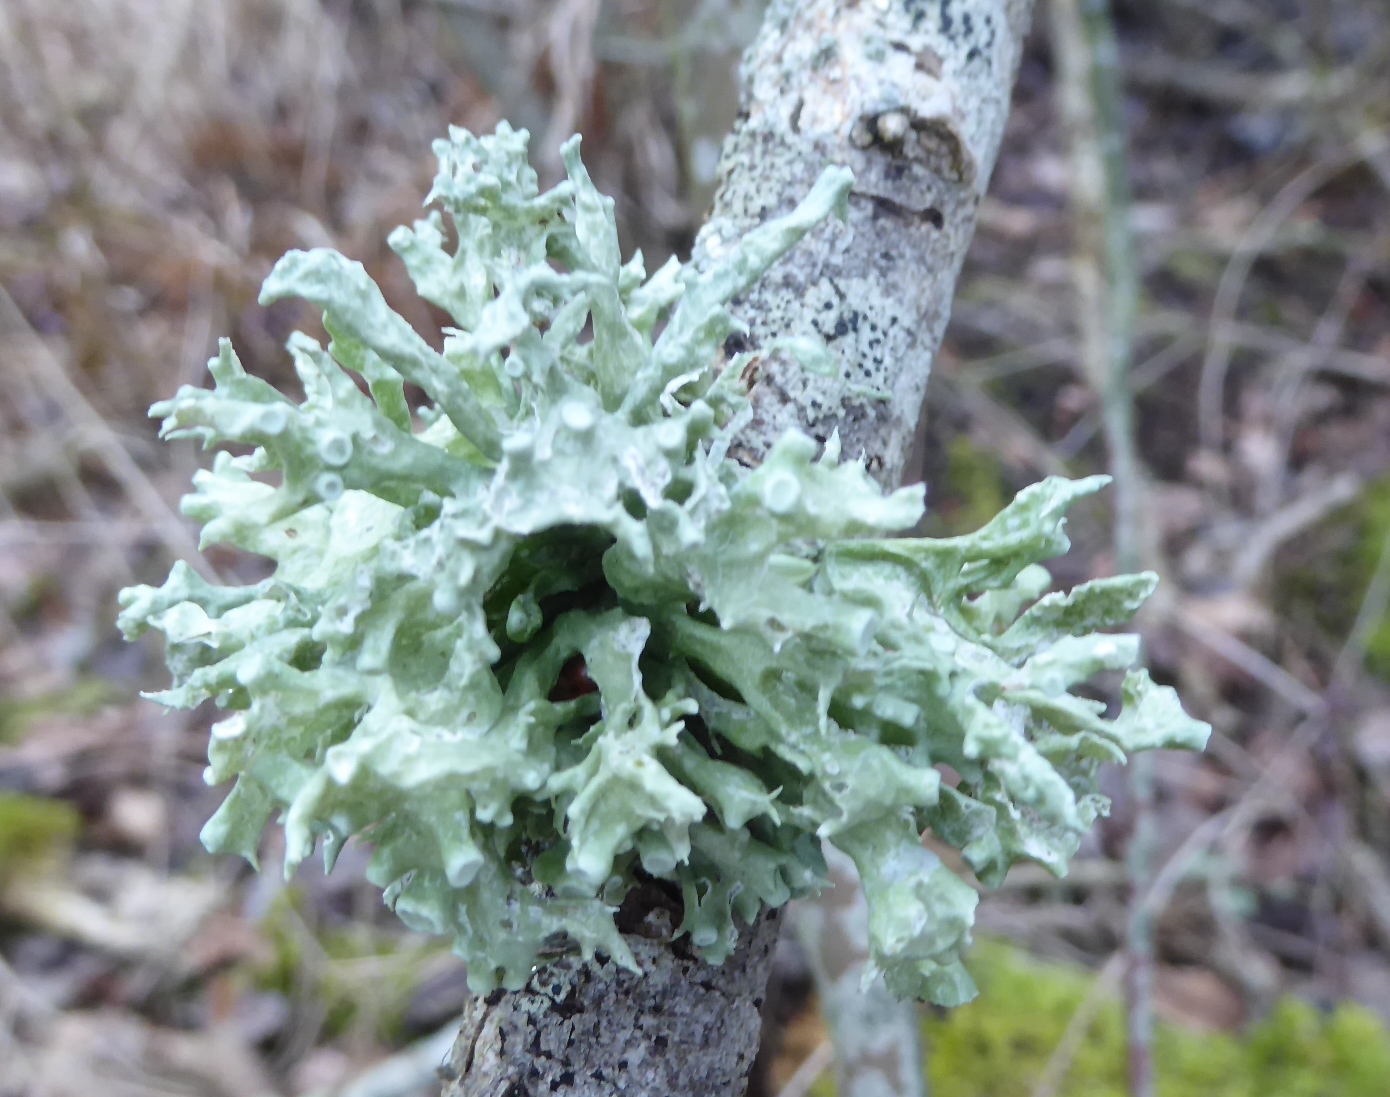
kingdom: Fungi
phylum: Ascomycota
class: Lecanoromycetes
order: Lecanorales
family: Ramalinaceae
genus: Ramalina
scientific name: Ramalina fastigiata
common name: tue-grenlav
